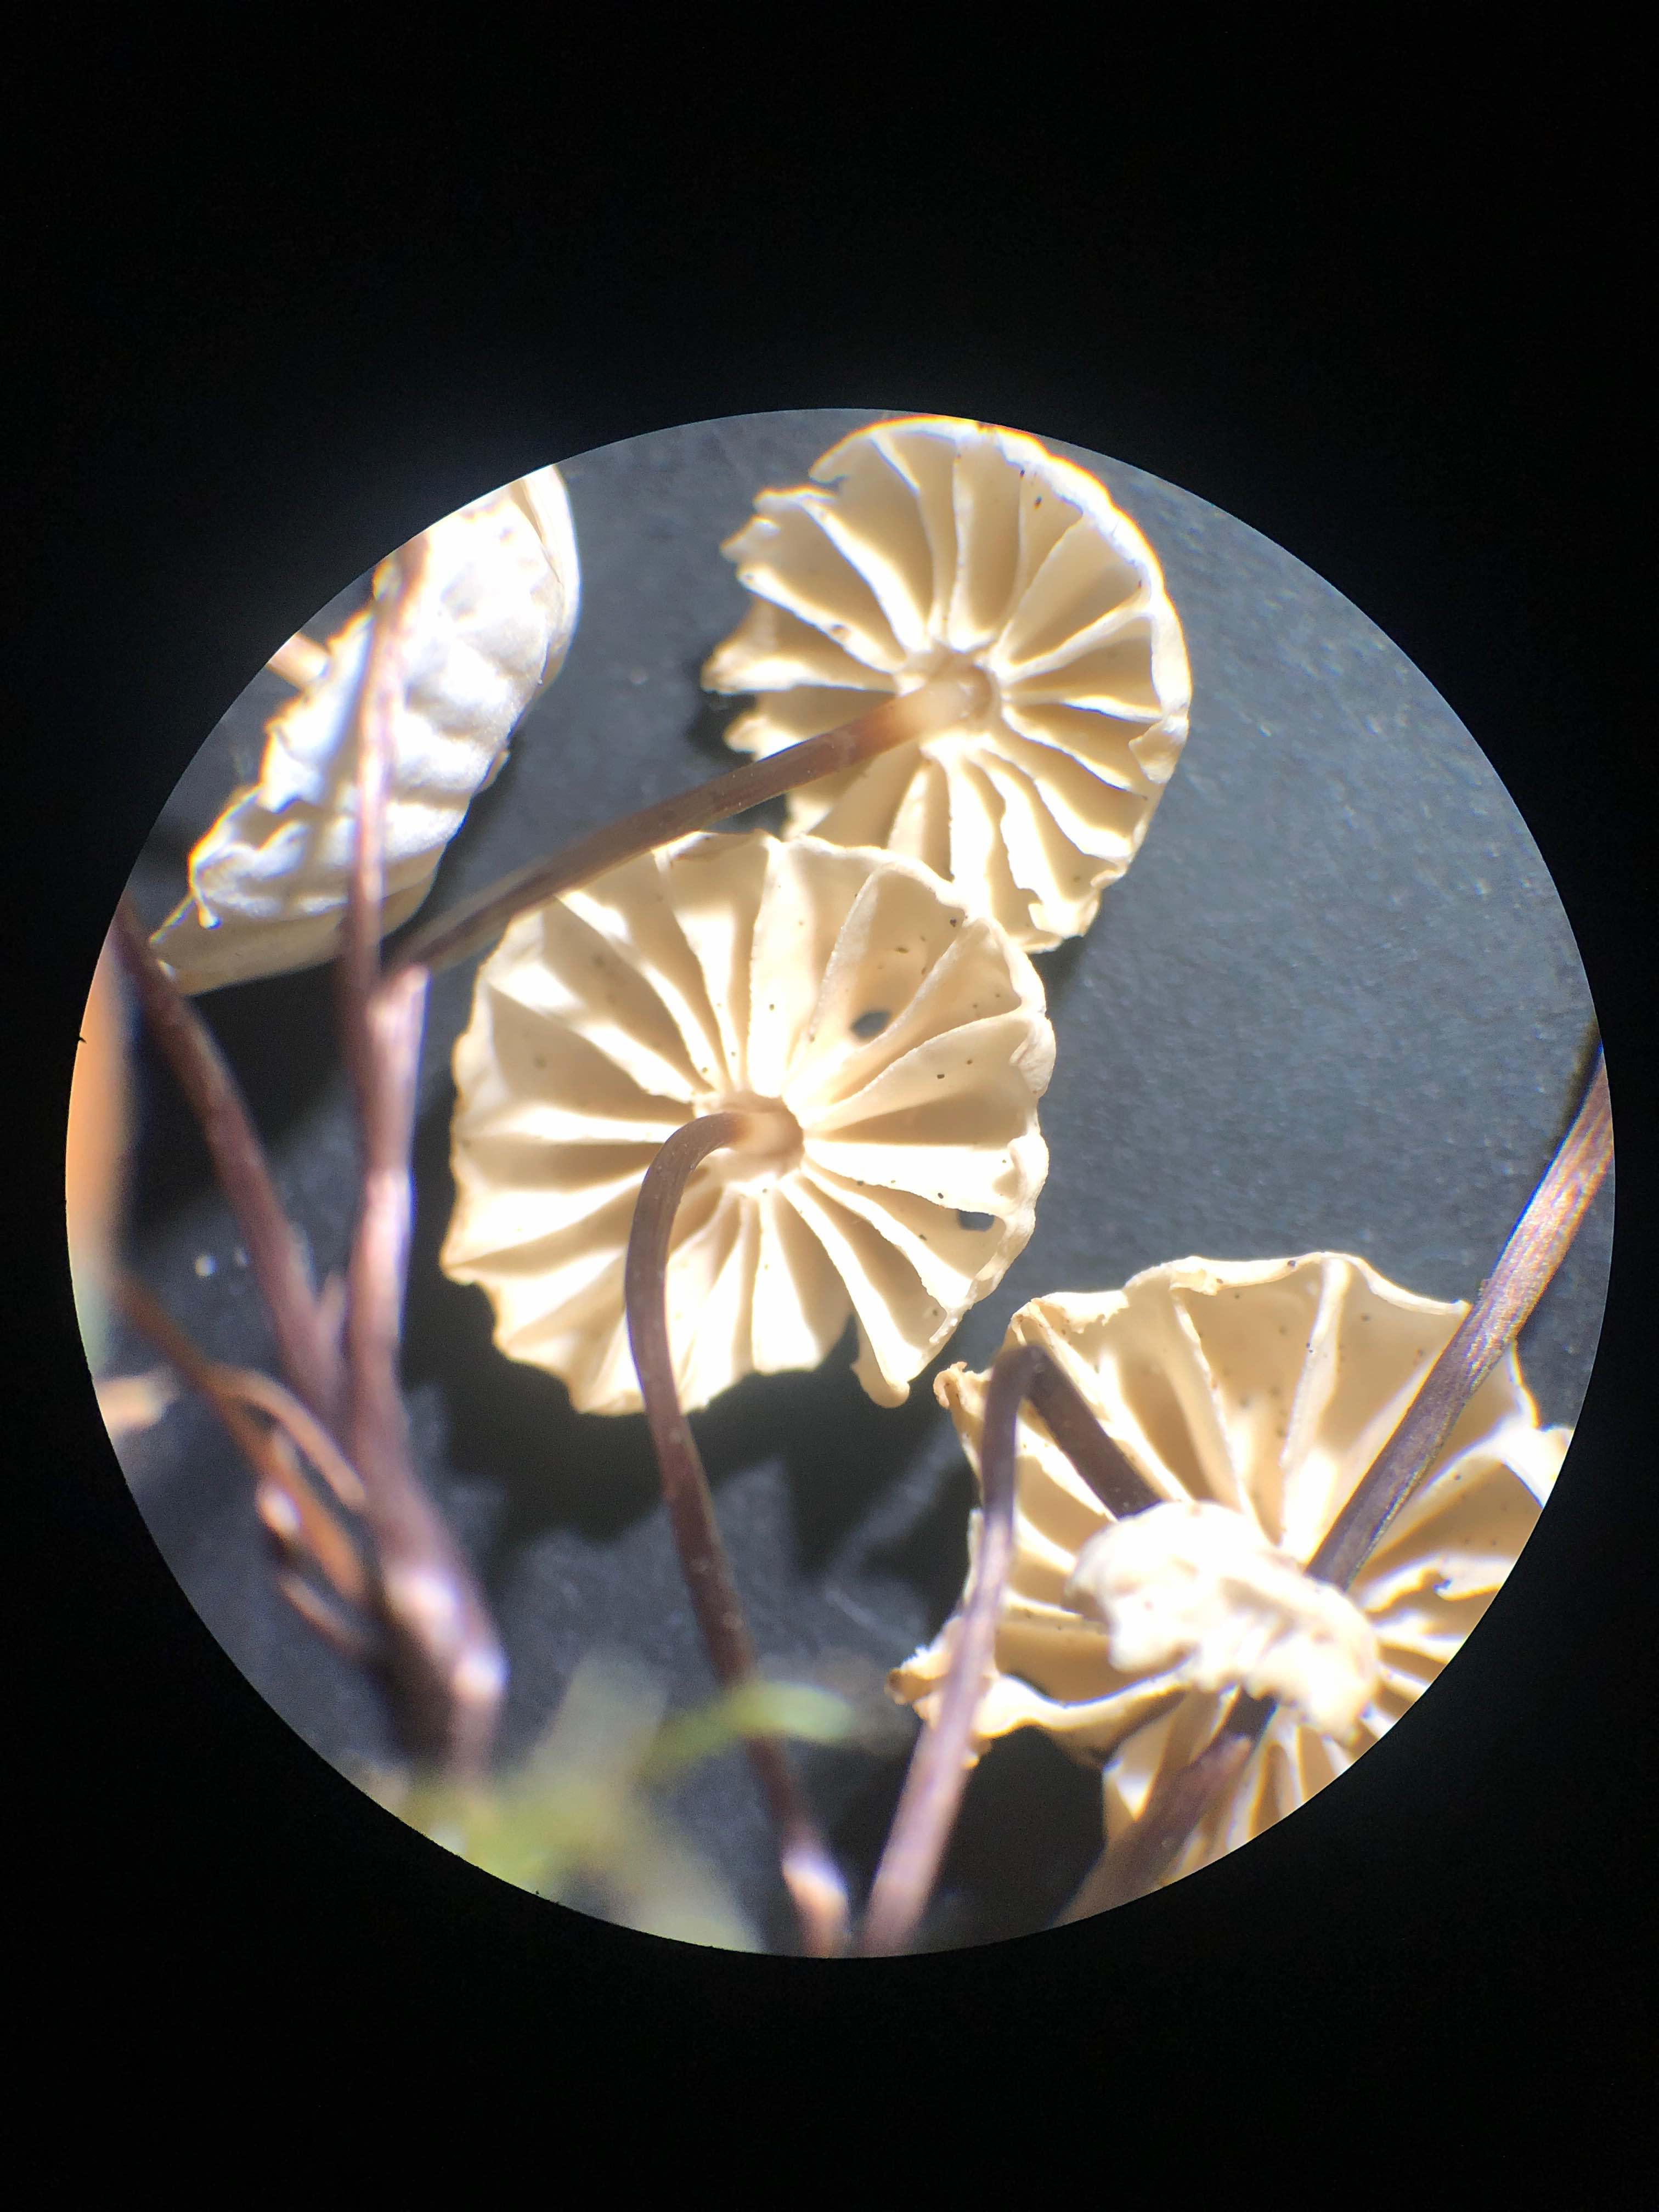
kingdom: Fungi
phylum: Basidiomycota
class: Agaricomycetes
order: Agaricales
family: Marasmiaceae
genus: Marasmius
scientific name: Marasmius rotula
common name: hjul-bruskhat
